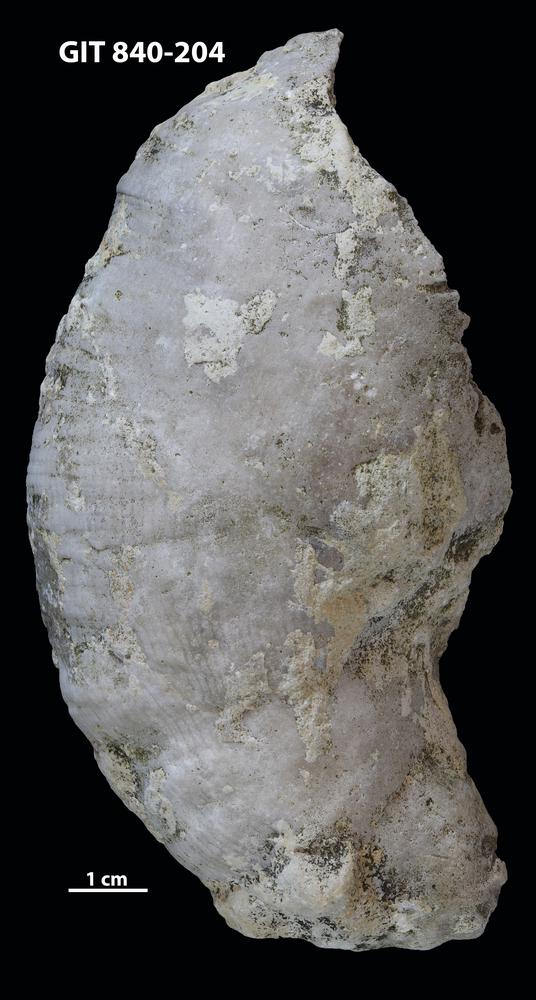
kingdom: Animalia
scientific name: Animalia
